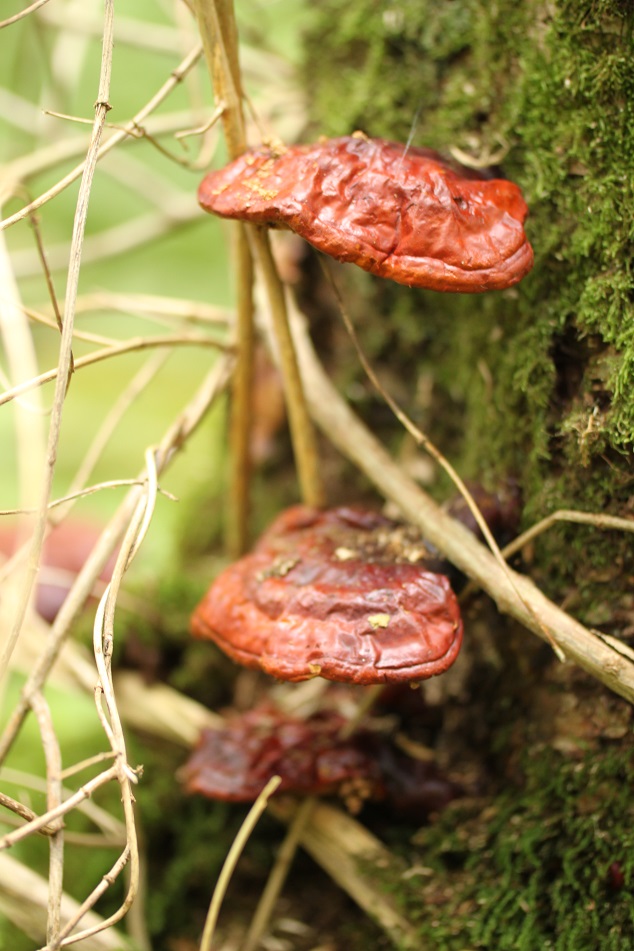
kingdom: Fungi
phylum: Basidiomycota
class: Agaricomycetes
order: Polyporales
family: Polyporaceae
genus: Ganoderma
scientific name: Ganoderma lucidum
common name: skinnende lakporesvamp
